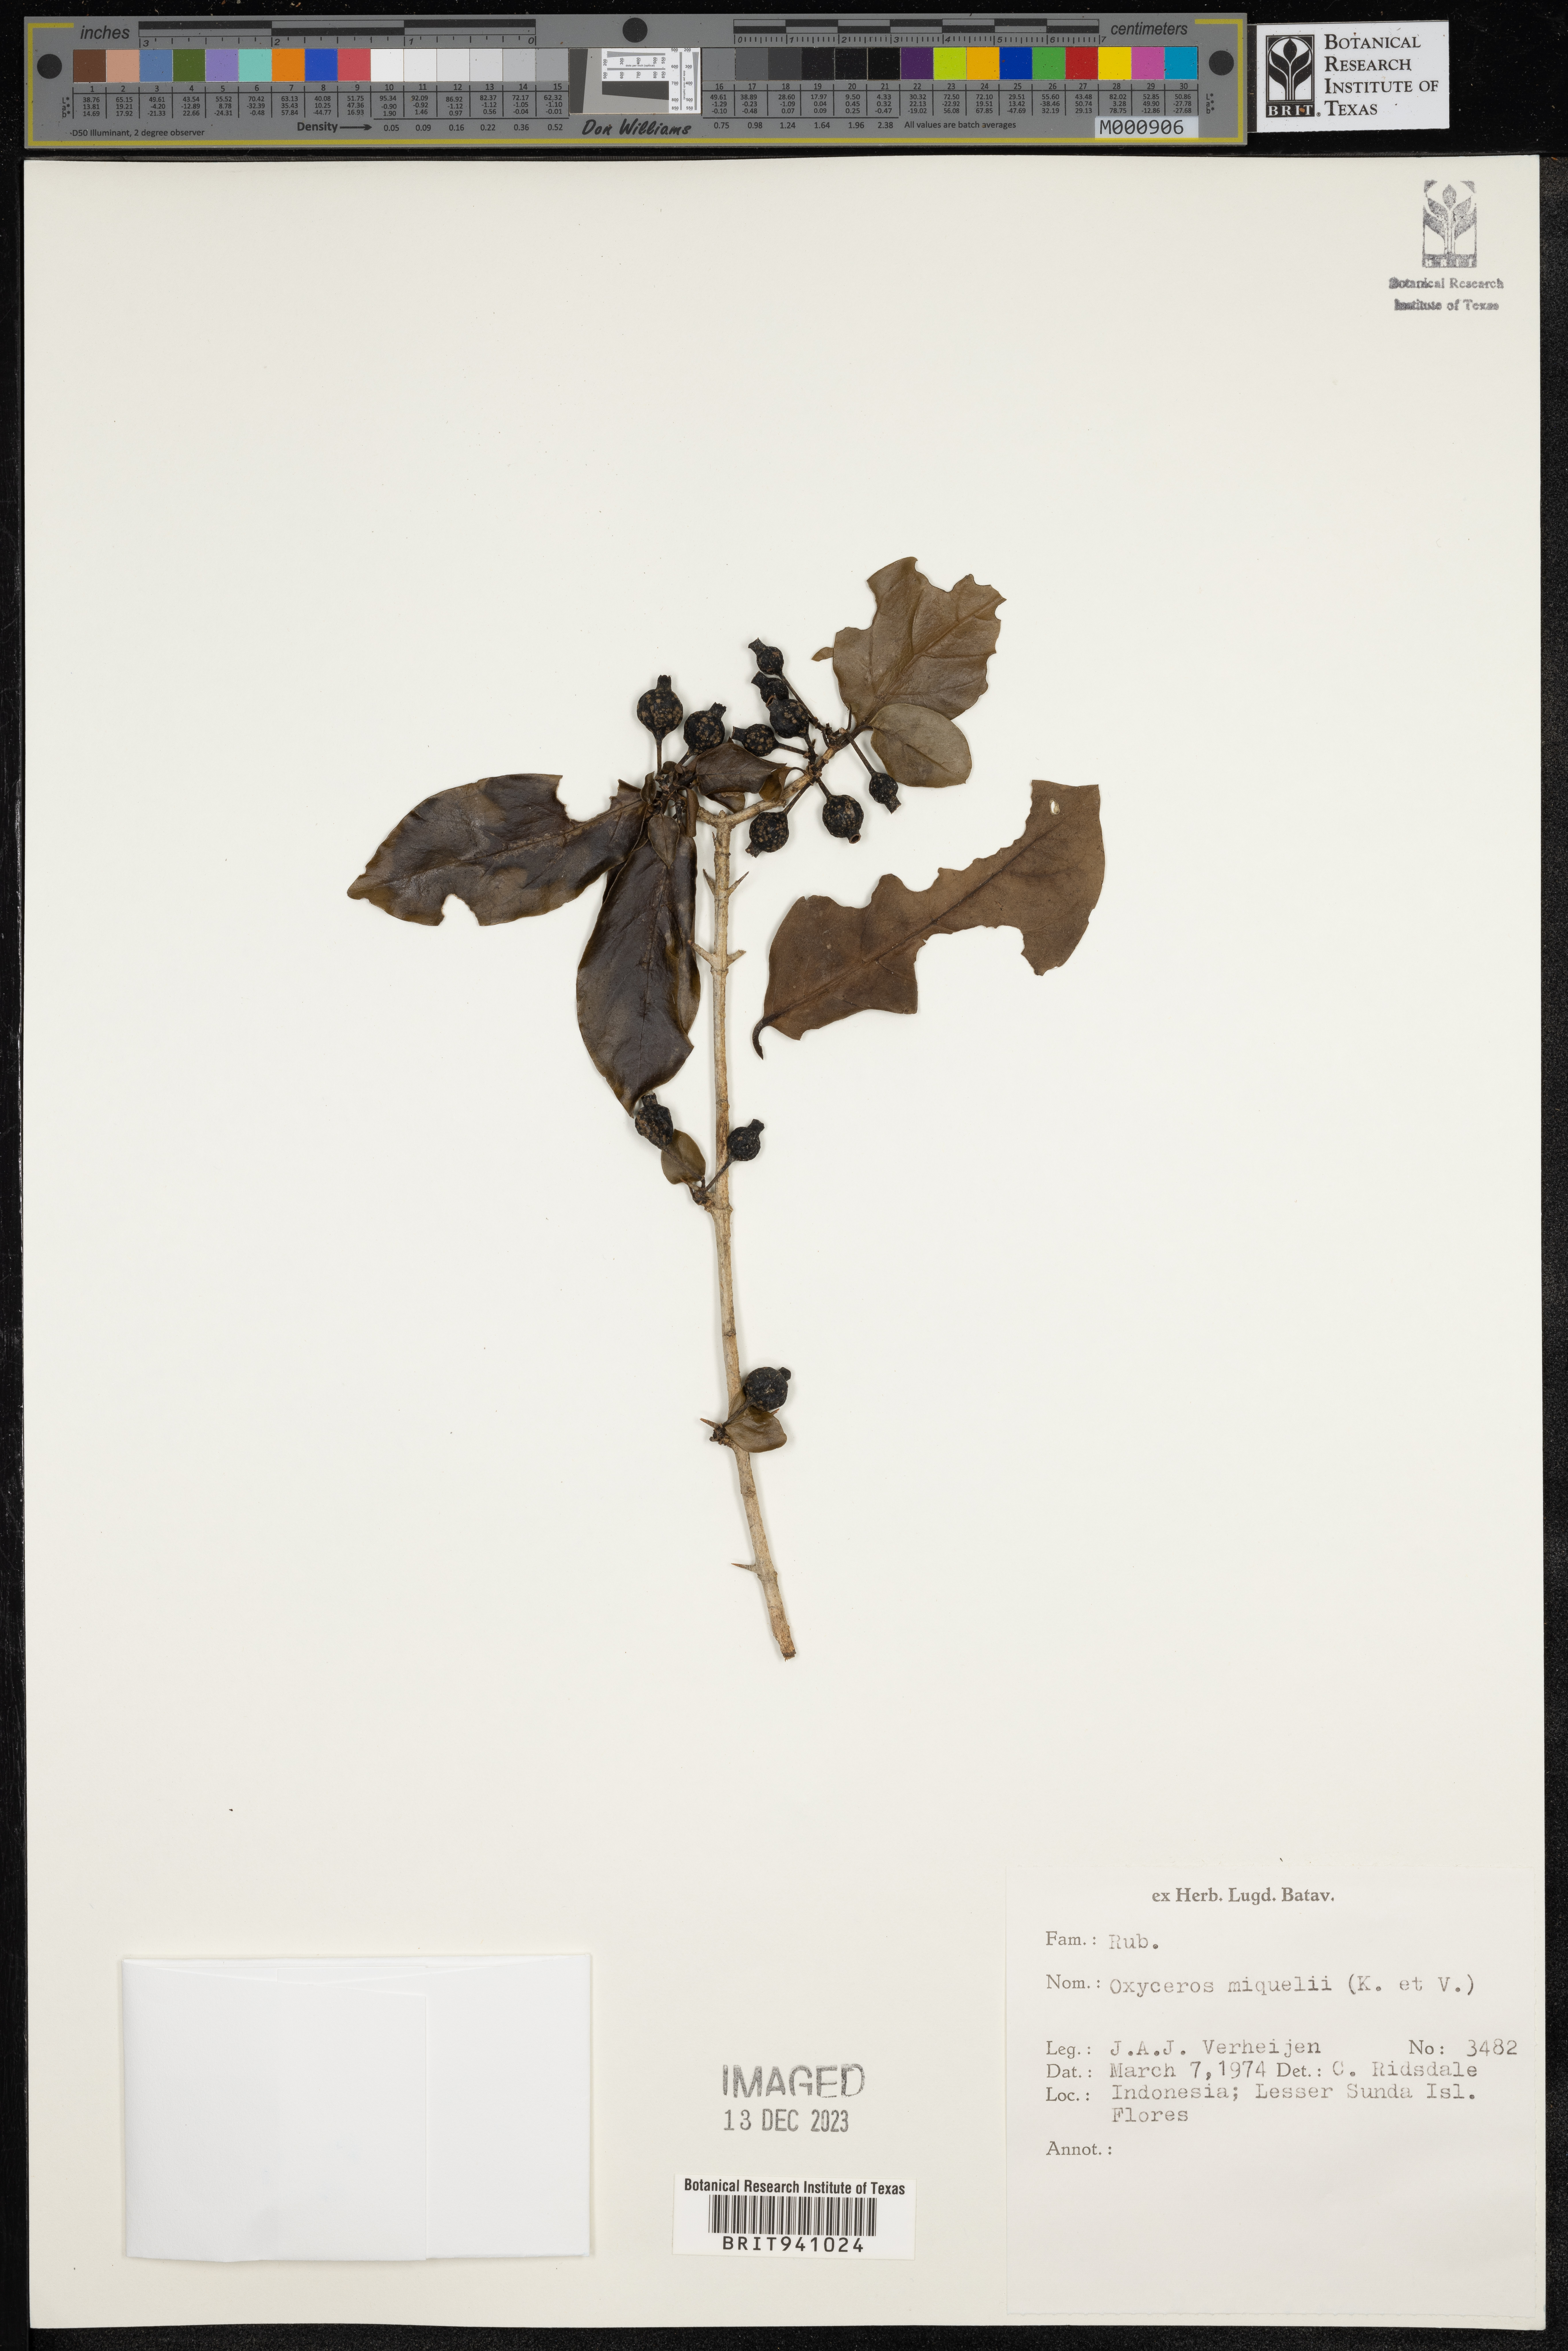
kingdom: Plantae
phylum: Tracheophyta
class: Magnoliopsida
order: Gentianales
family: Rubiaceae
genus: Oxyceros
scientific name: Oxyceros
